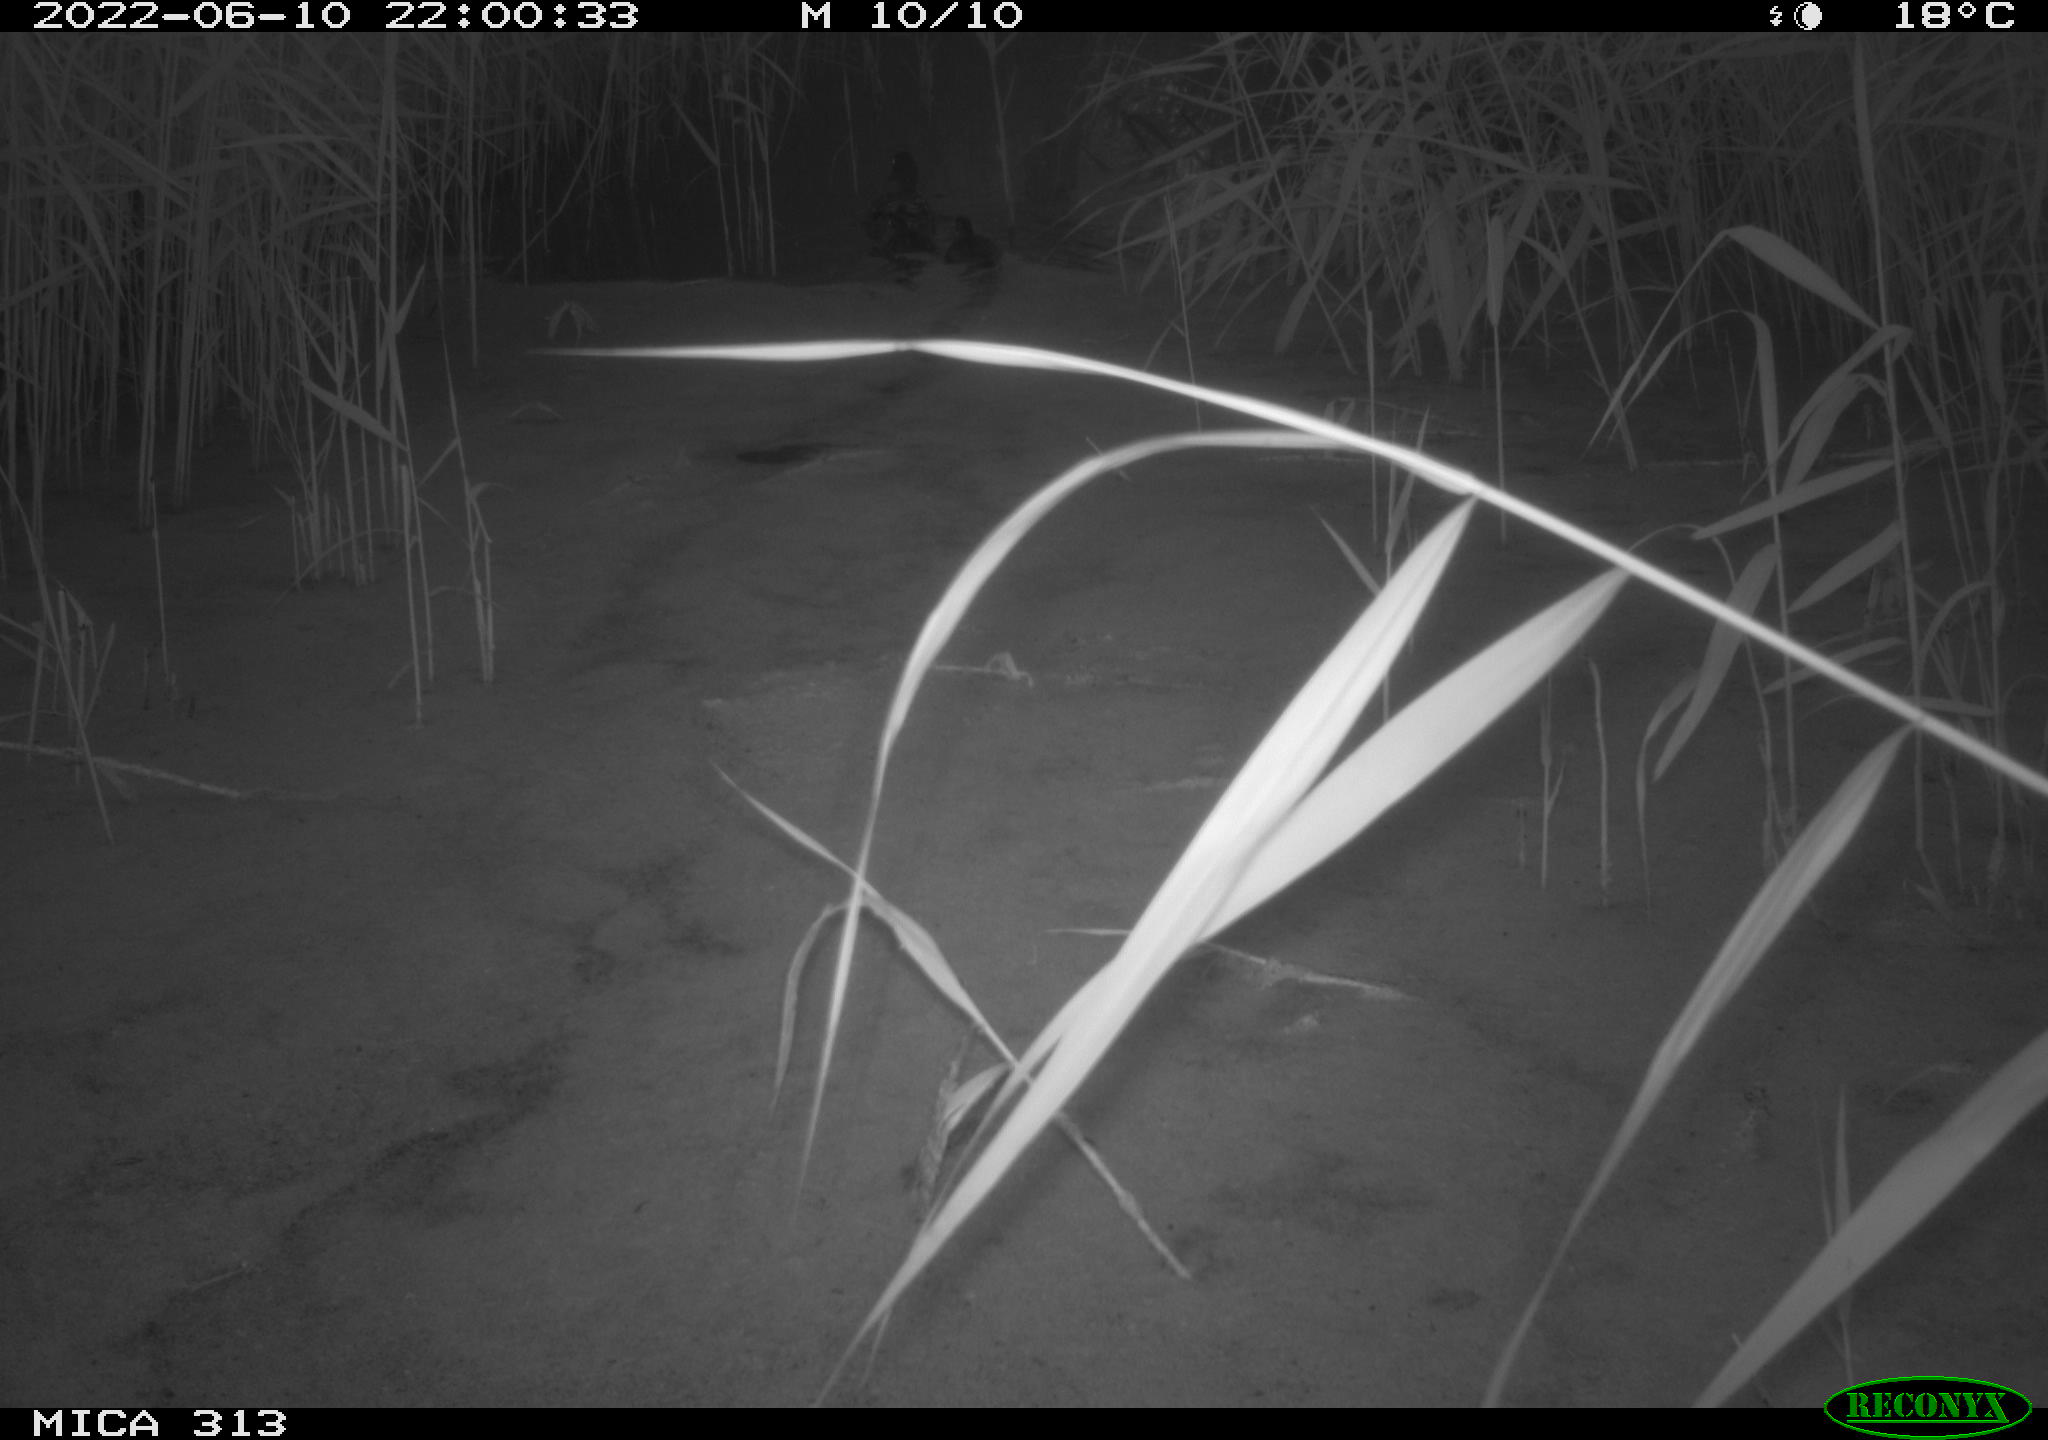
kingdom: Animalia
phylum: Chordata
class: Aves
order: Anseriformes
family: Anatidae
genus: Anas
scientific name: Anas platyrhynchos
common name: Mallard
